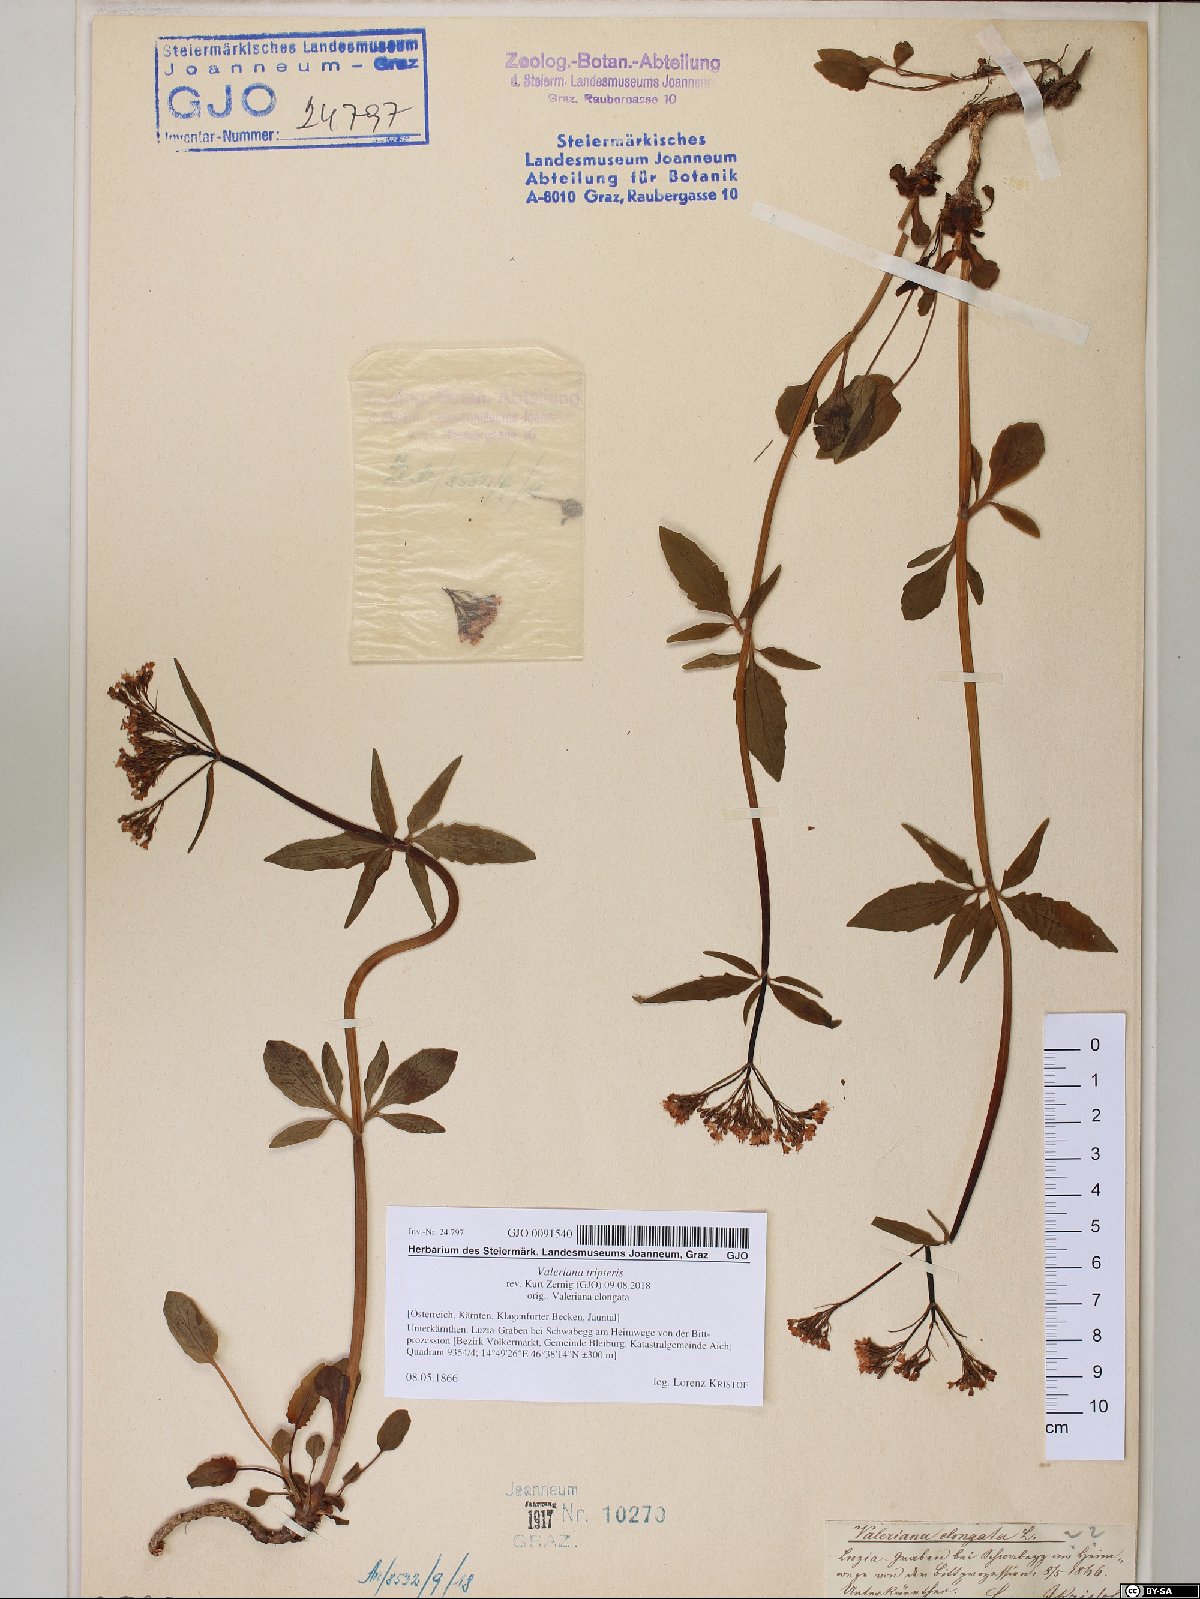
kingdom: Plantae
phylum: Tracheophyta
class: Magnoliopsida
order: Dipsacales
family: Caprifoliaceae
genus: Valeriana
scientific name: Valeriana tripteris
